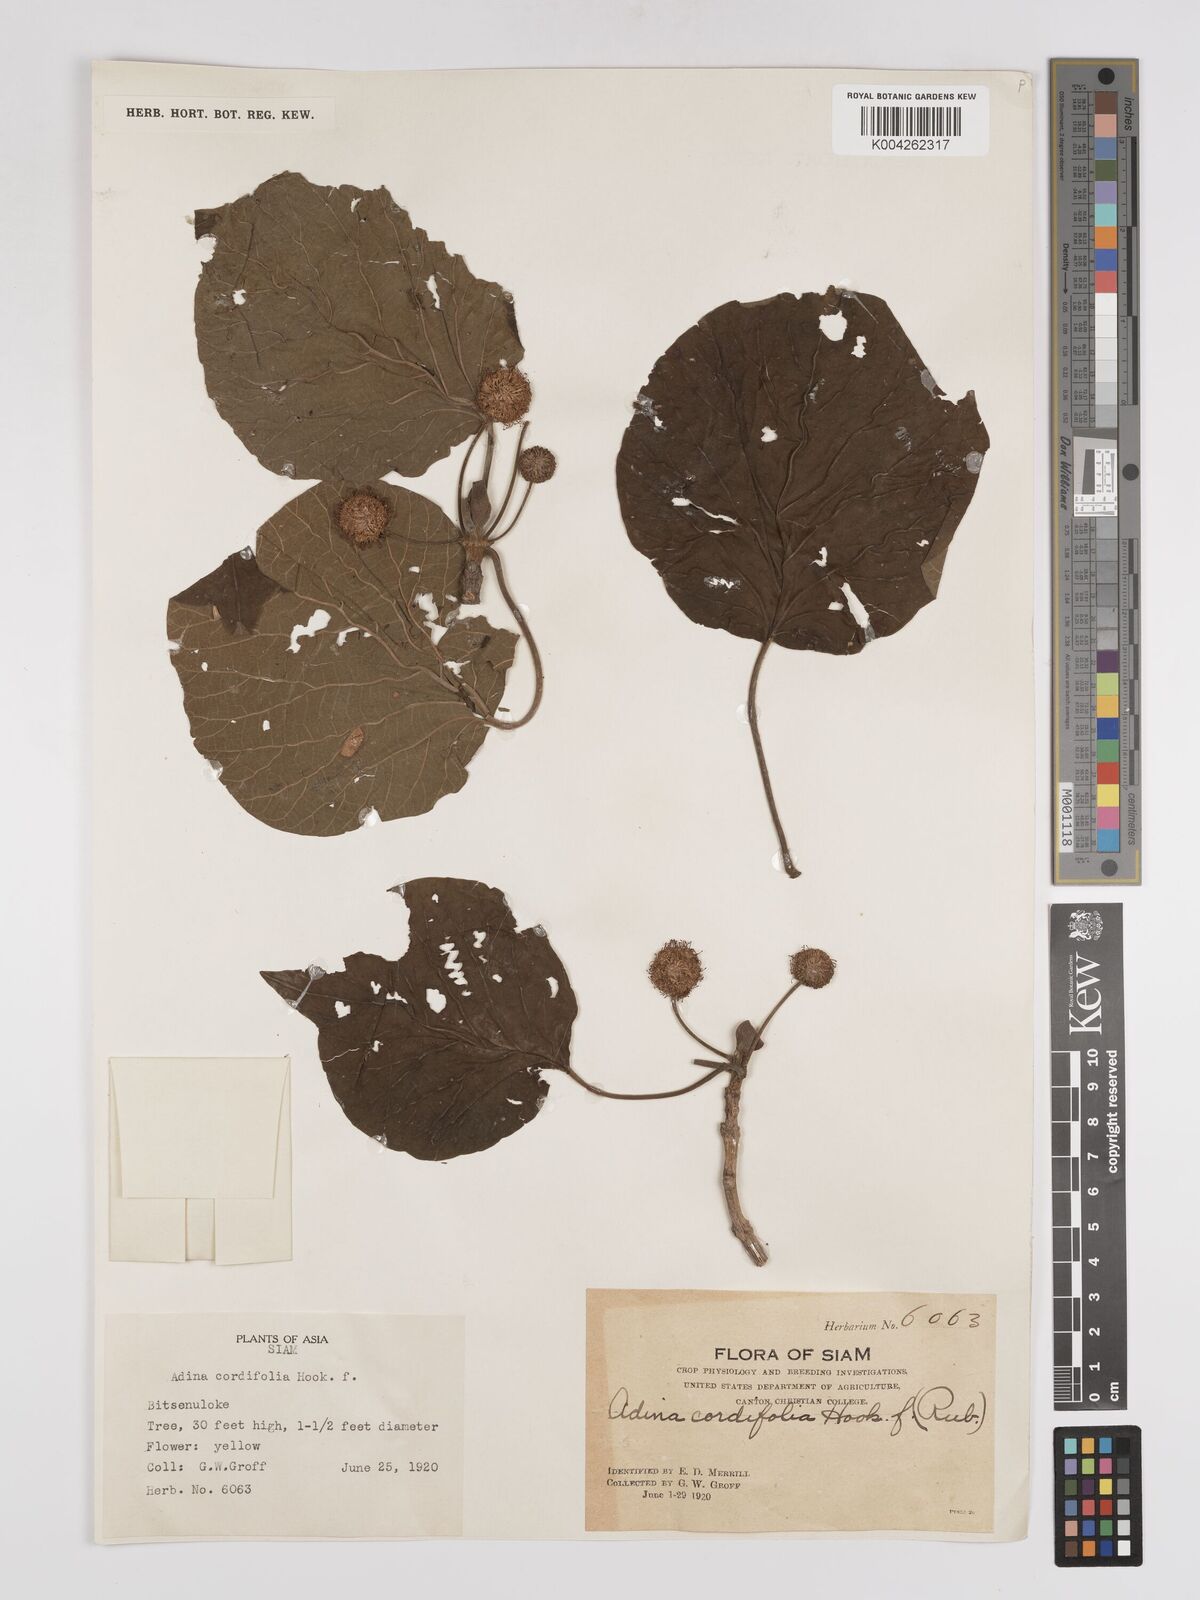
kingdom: Plantae
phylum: Tracheophyta
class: Magnoliopsida
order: Gentianales
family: Rubiaceae
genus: Adina
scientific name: Adina cordifolia
